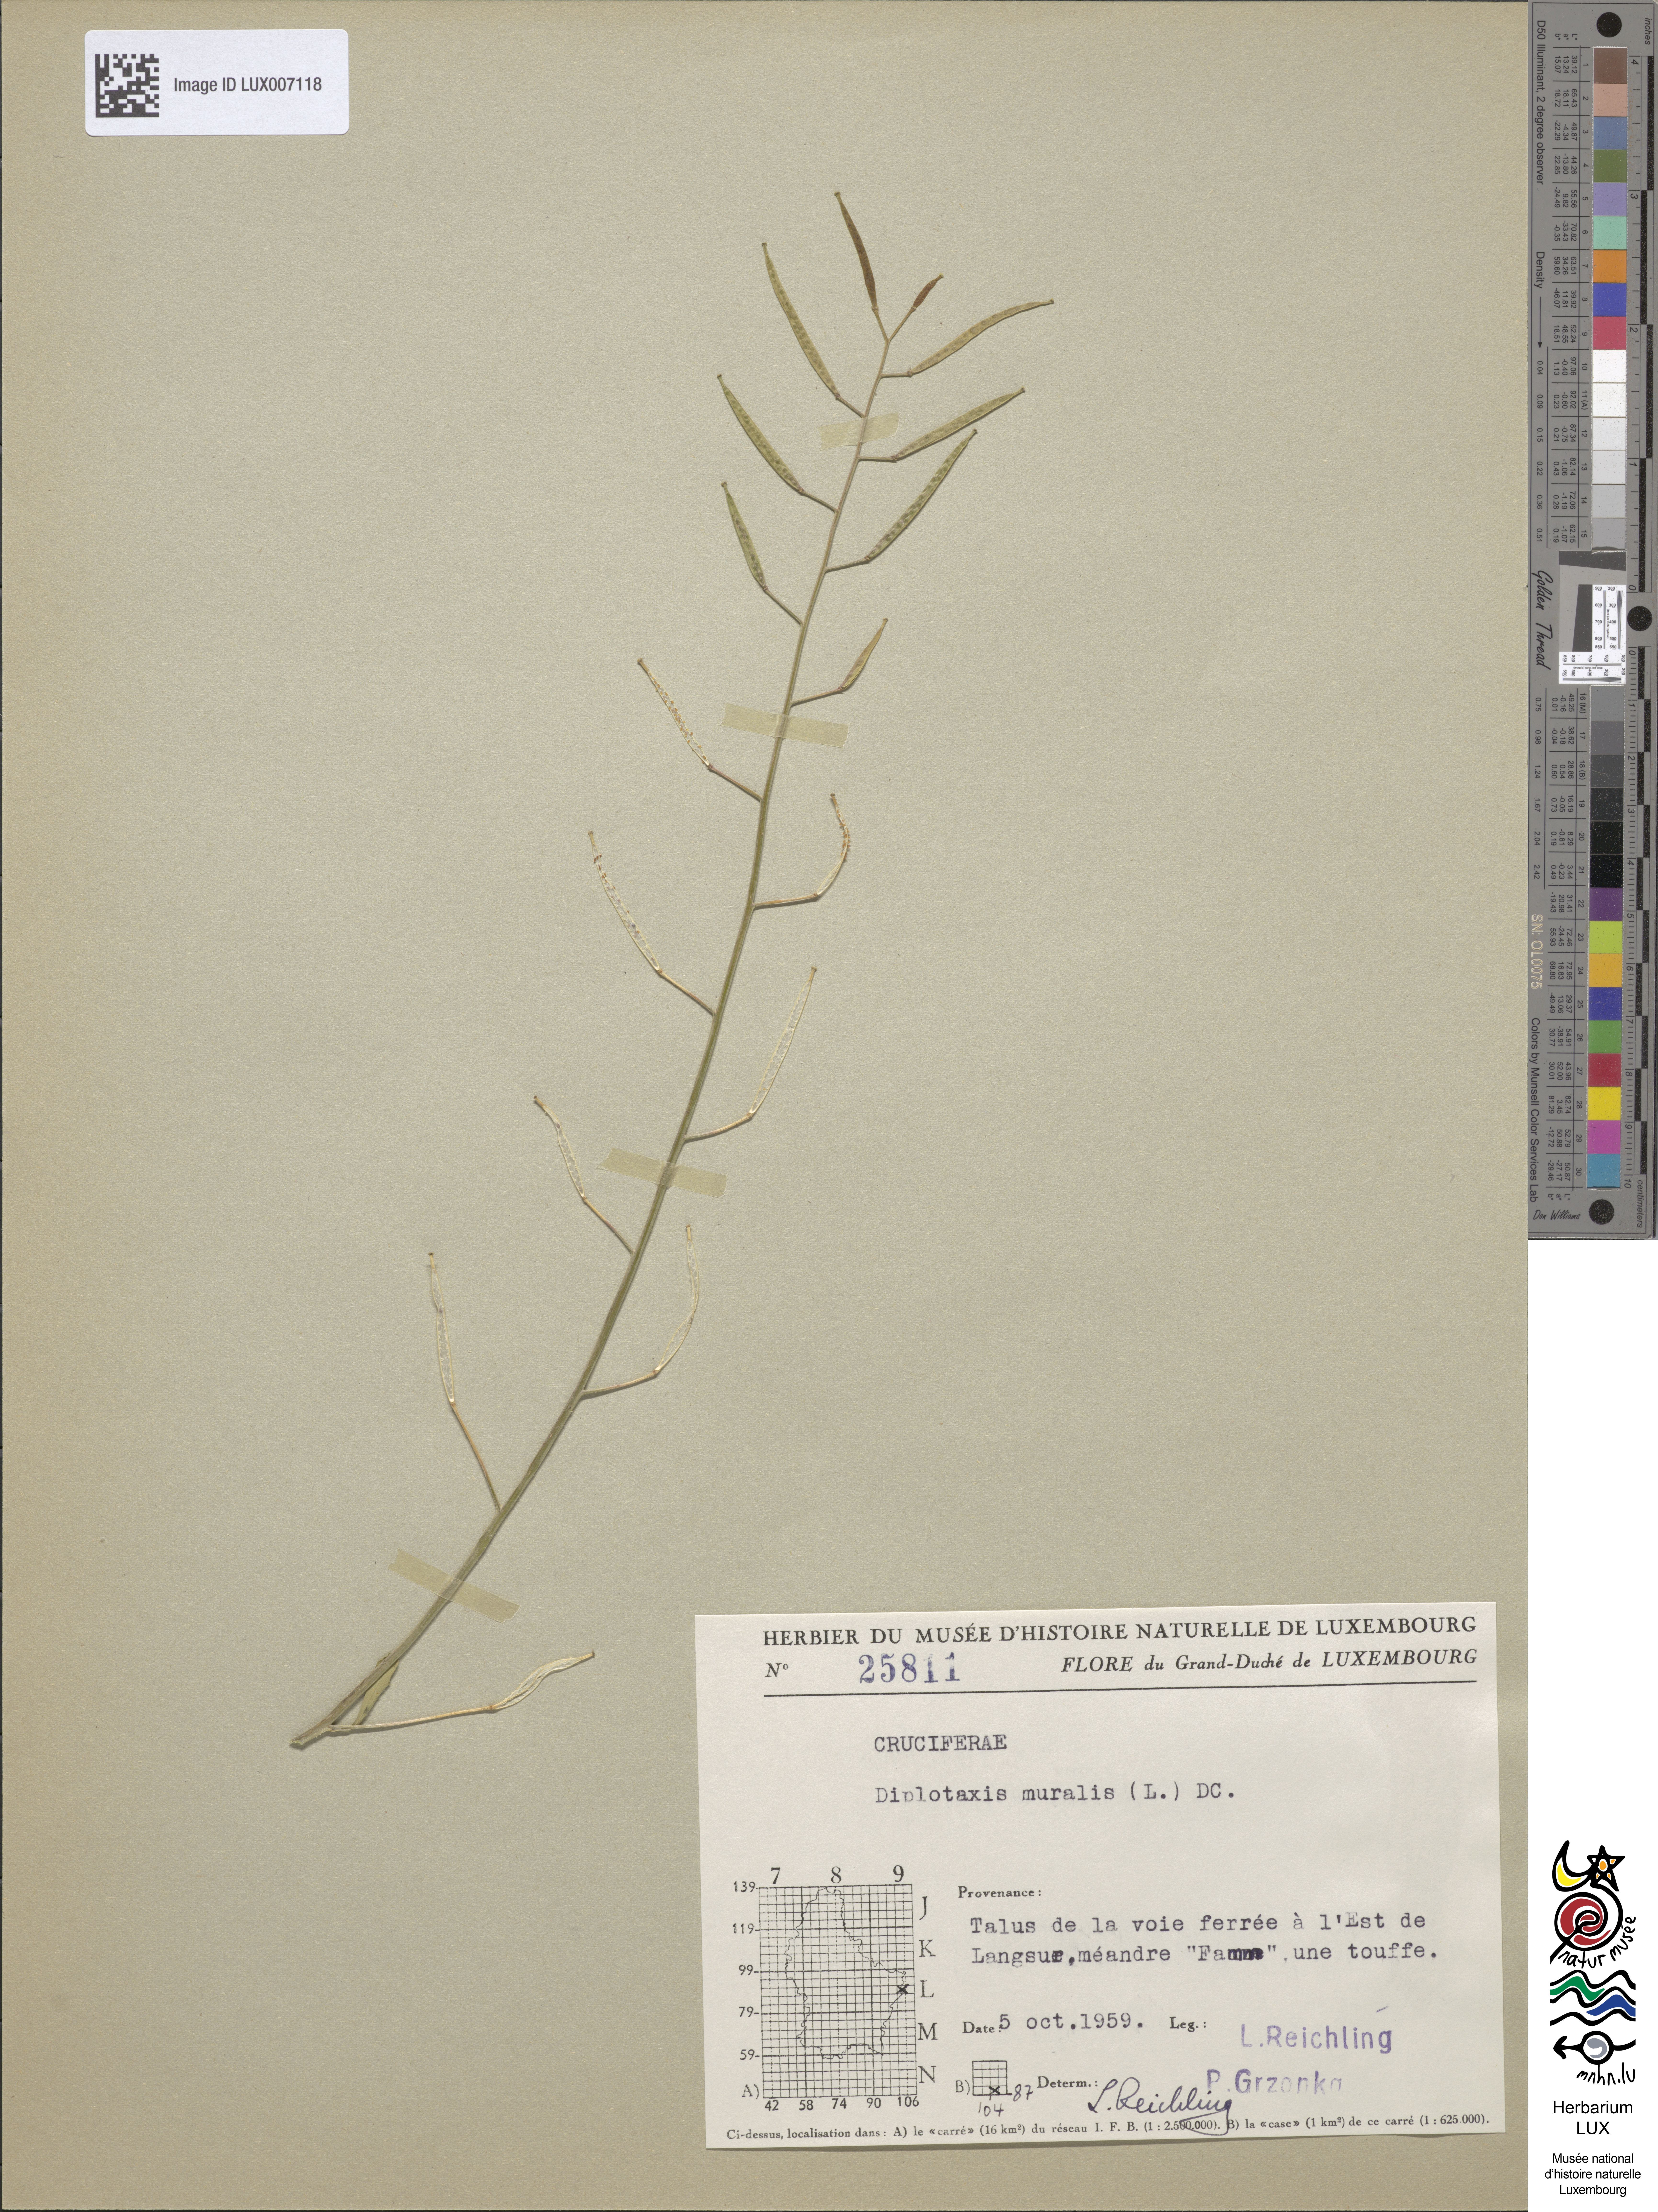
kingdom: Plantae
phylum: Tracheophyta
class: Magnoliopsida
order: Brassicales
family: Brassicaceae
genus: Diplotaxis
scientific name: Diplotaxis muralis
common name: Annual wall-rocket
